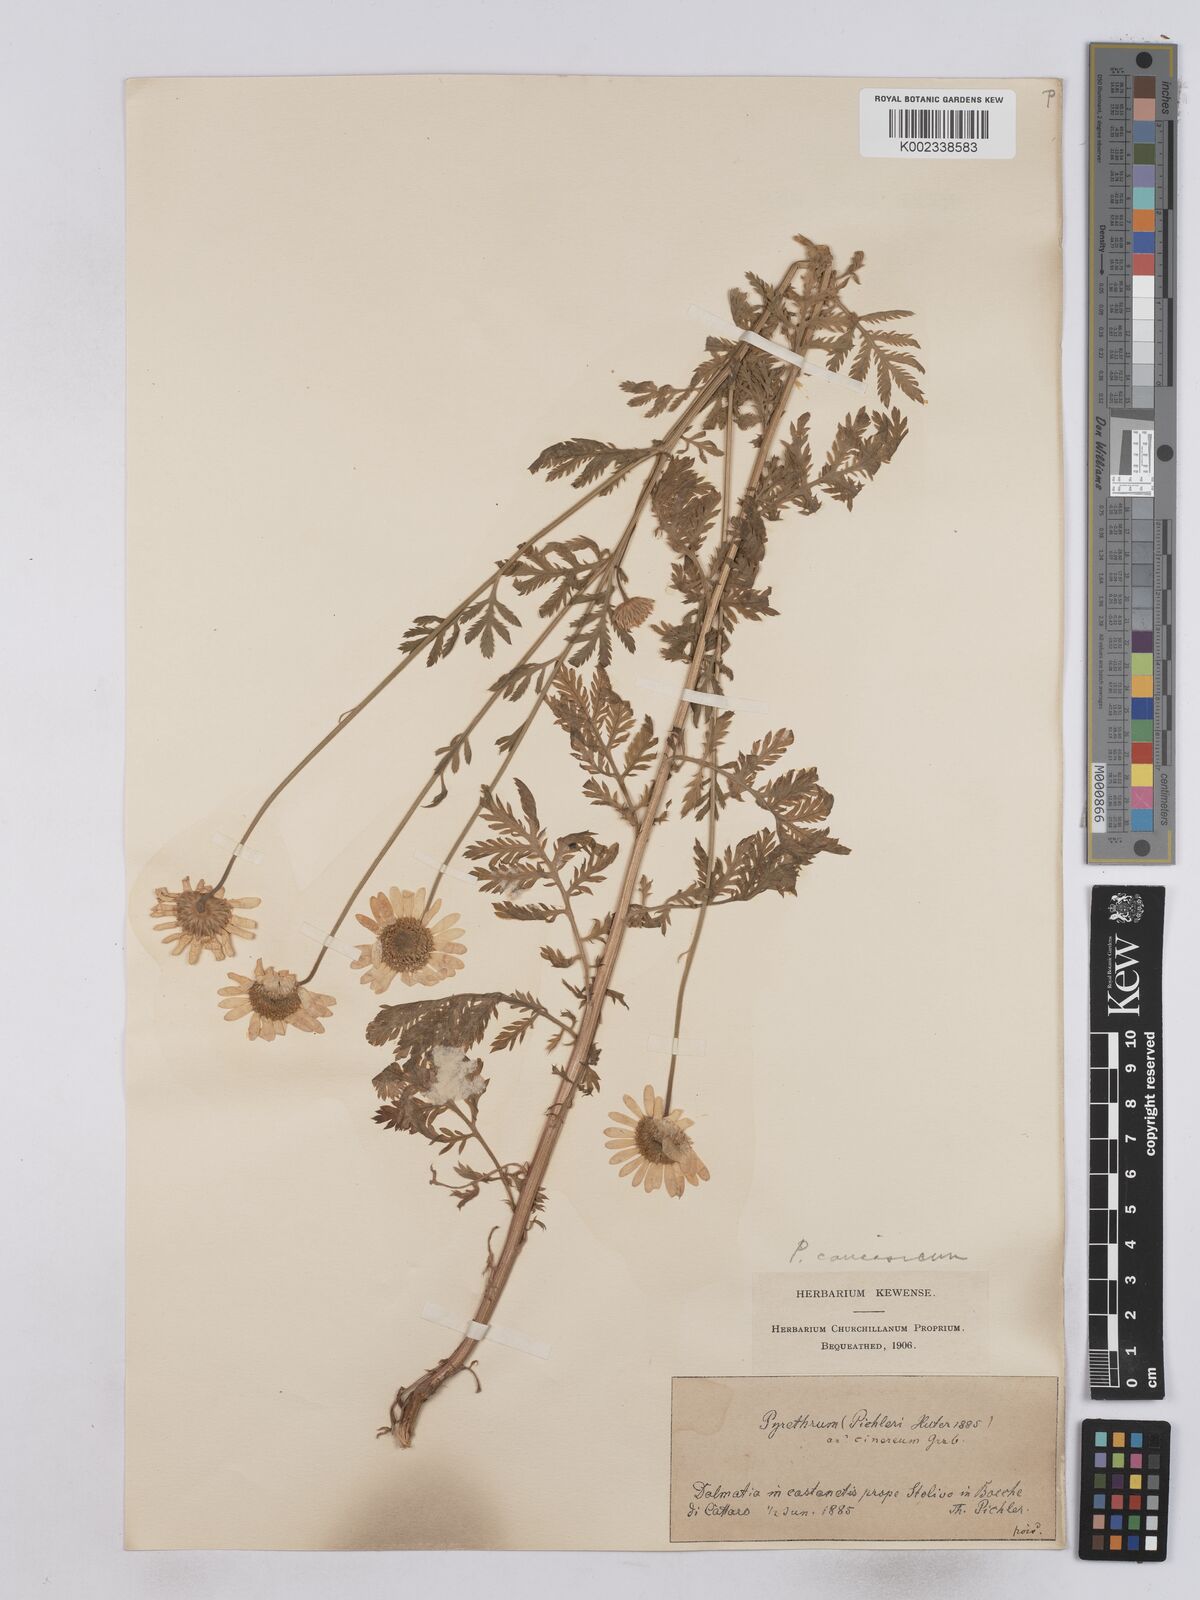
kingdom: Plantae
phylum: Tracheophyta
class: Magnoliopsida
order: Asterales
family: Asteraceae
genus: Tanacetum
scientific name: Tanacetum corymbosum
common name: Scentless feverfew
